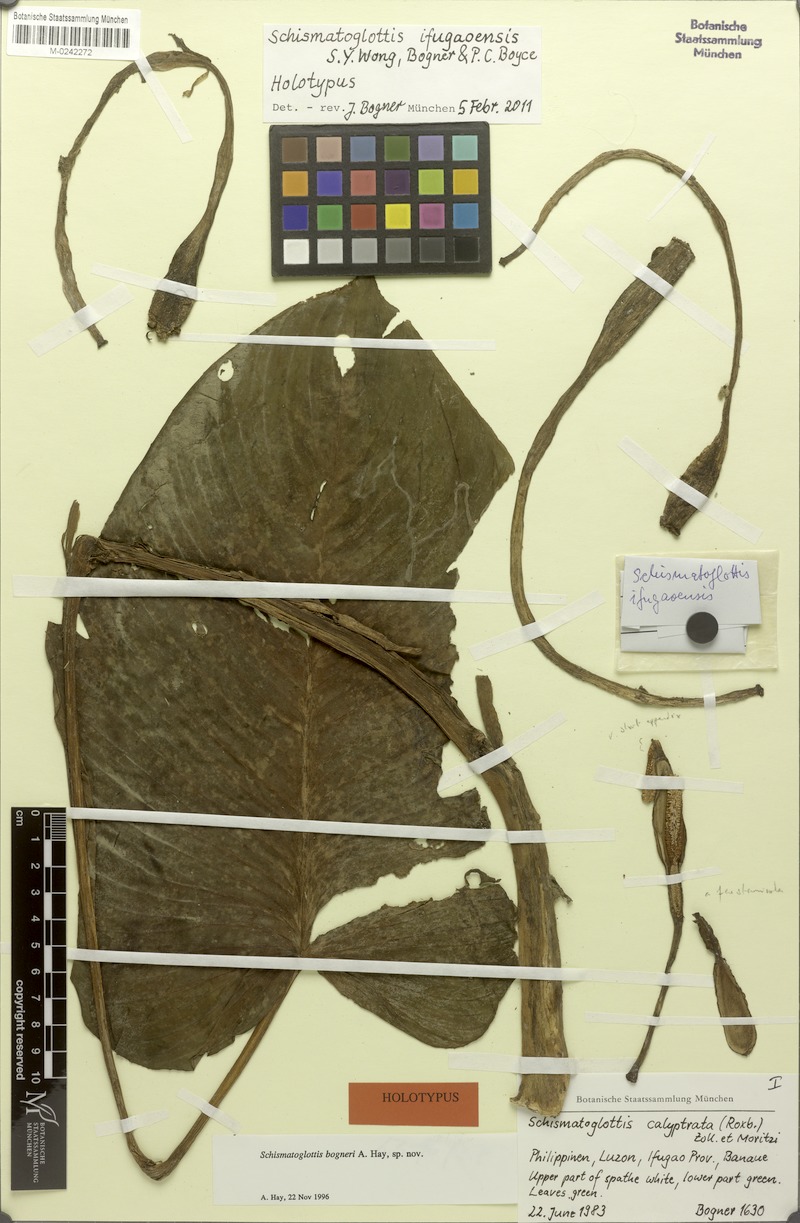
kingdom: Plantae
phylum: Tracheophyta
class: Liliopsida
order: Alismatales
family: Araceae
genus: Schismatoglottis
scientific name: Schismatoglottis ifugaoensis
